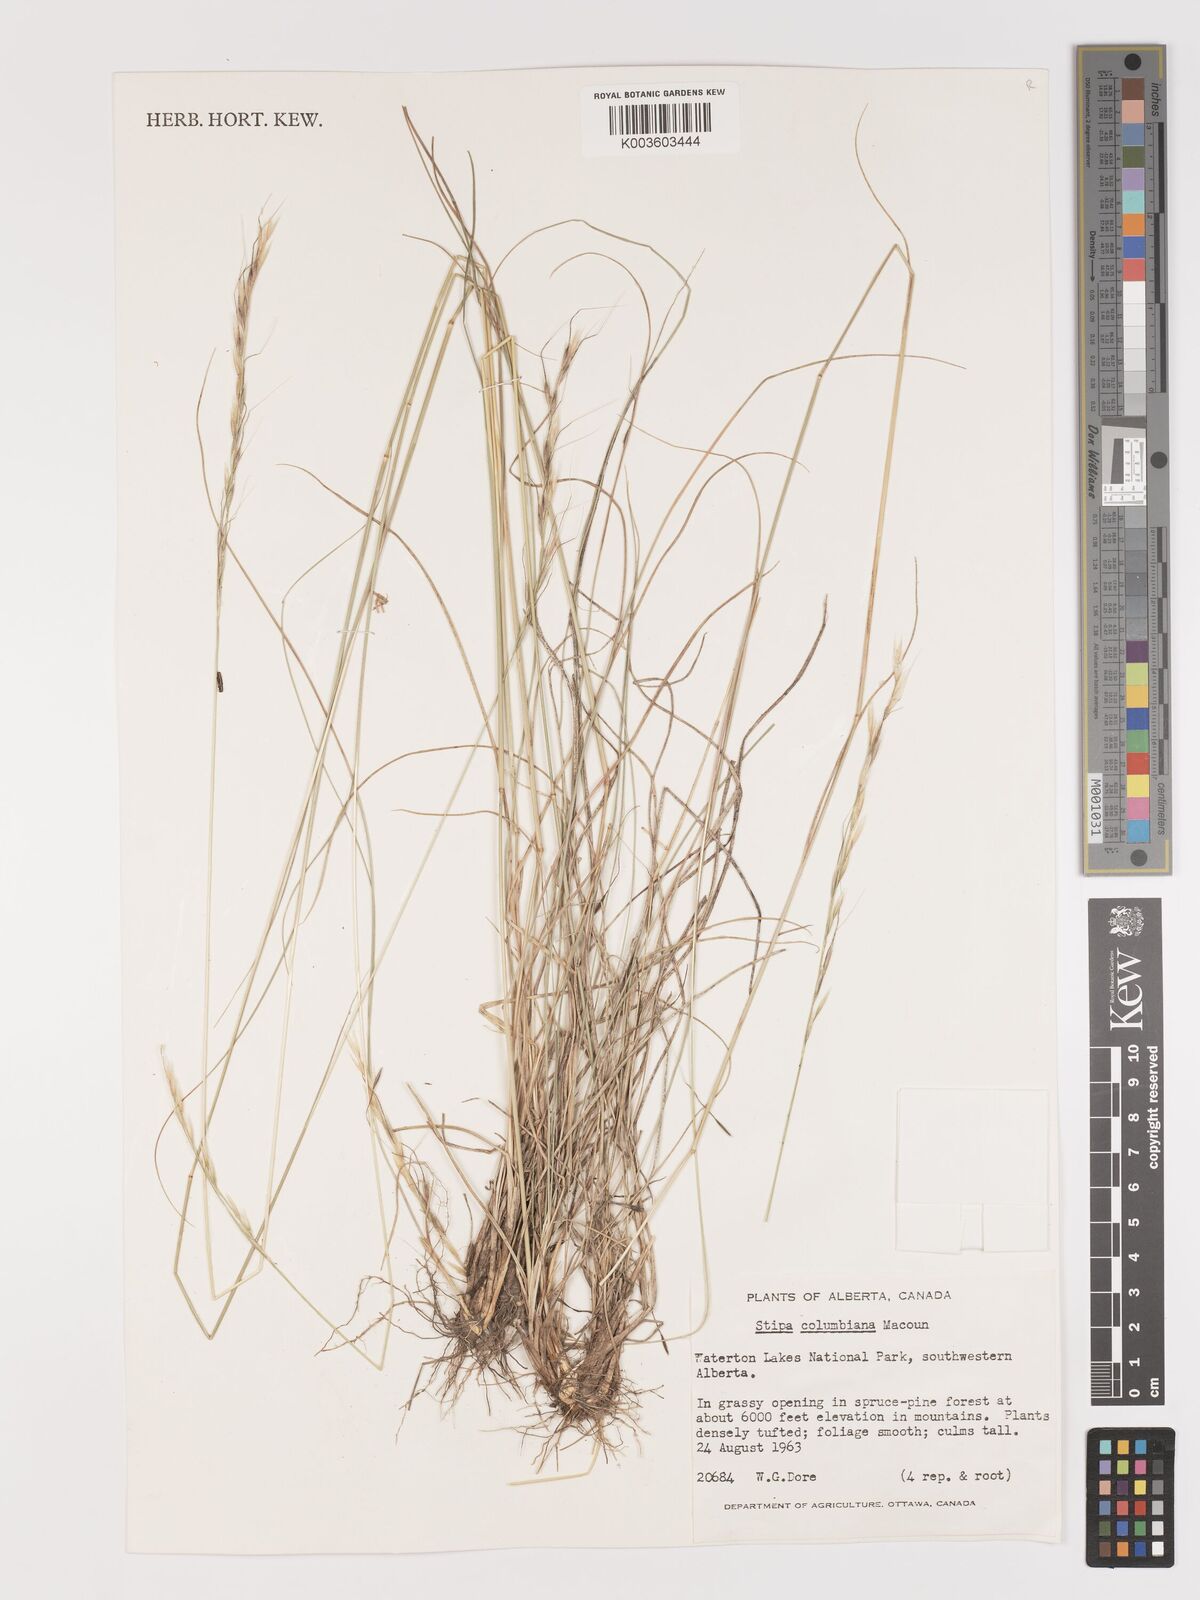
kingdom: Plantae
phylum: Tracheophyta
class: Liliopsida
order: Poales
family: Poaceae
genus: Eriocoma
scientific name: Eriocoma nelsonii
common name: Nelson's needlegrass
